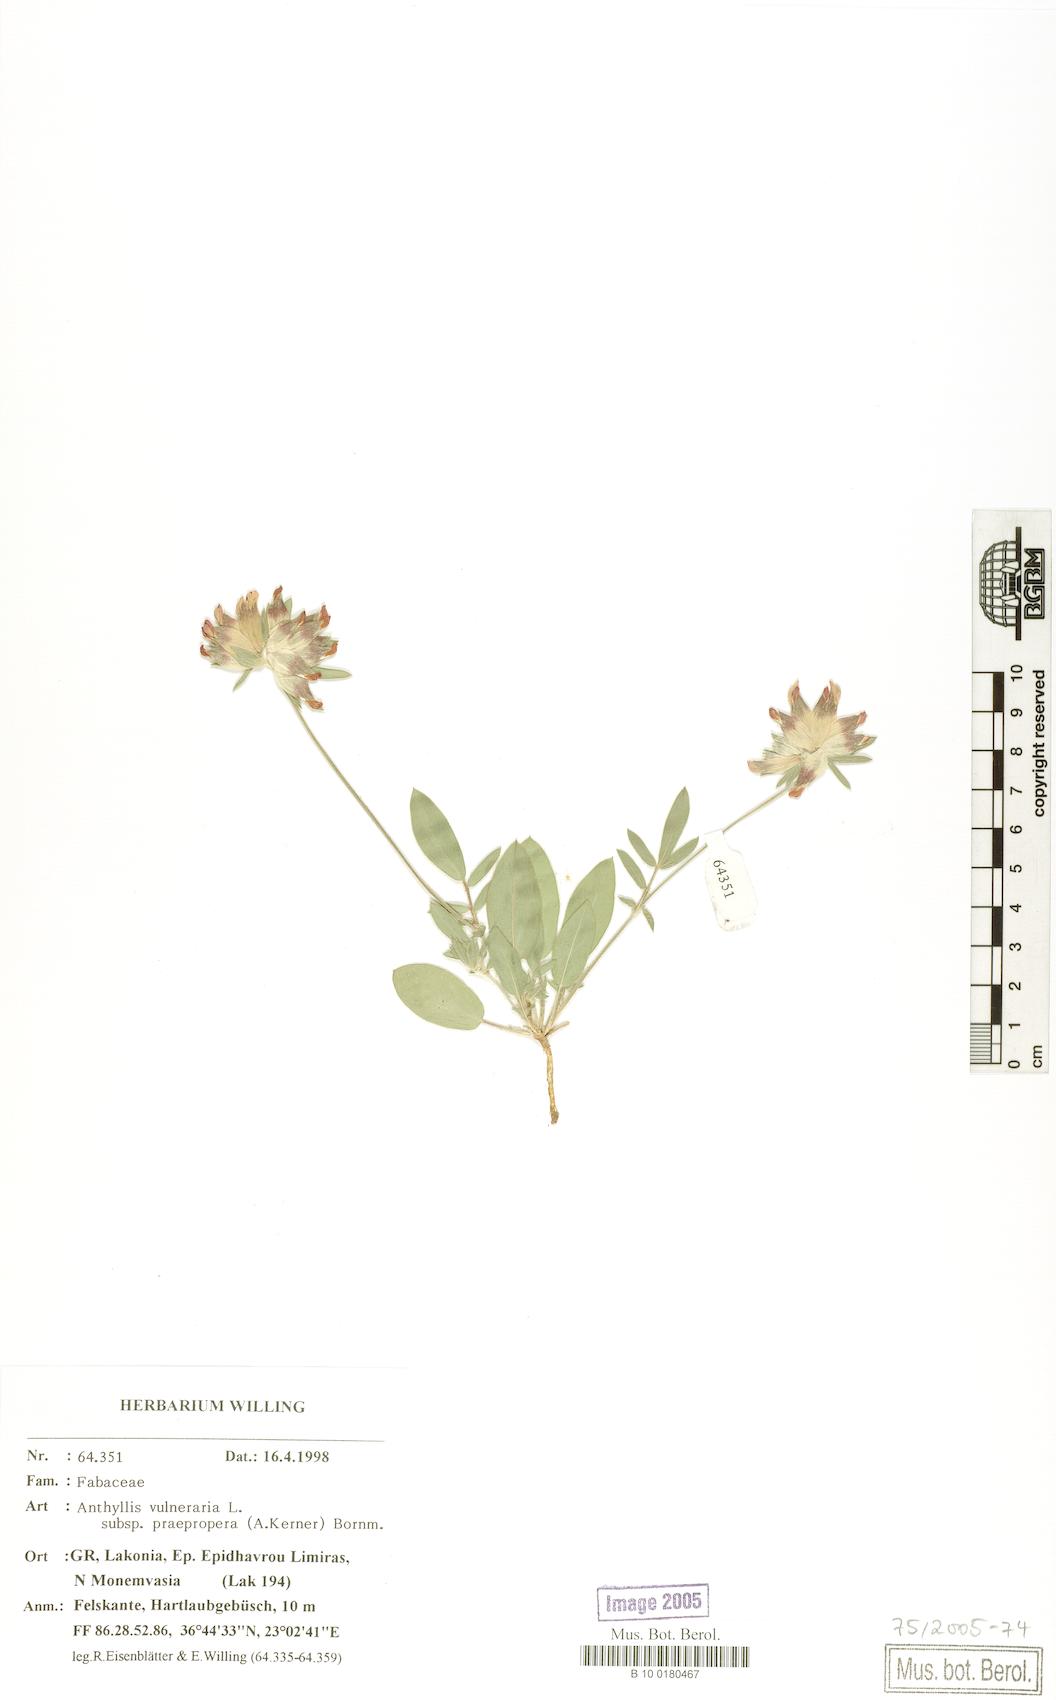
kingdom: Plantae
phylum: Tracheophyta
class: Magnoliopsida
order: Fabales
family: Fabaceae
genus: Anthyllis
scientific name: Anthyllis vulneraria
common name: Kidney vetch
